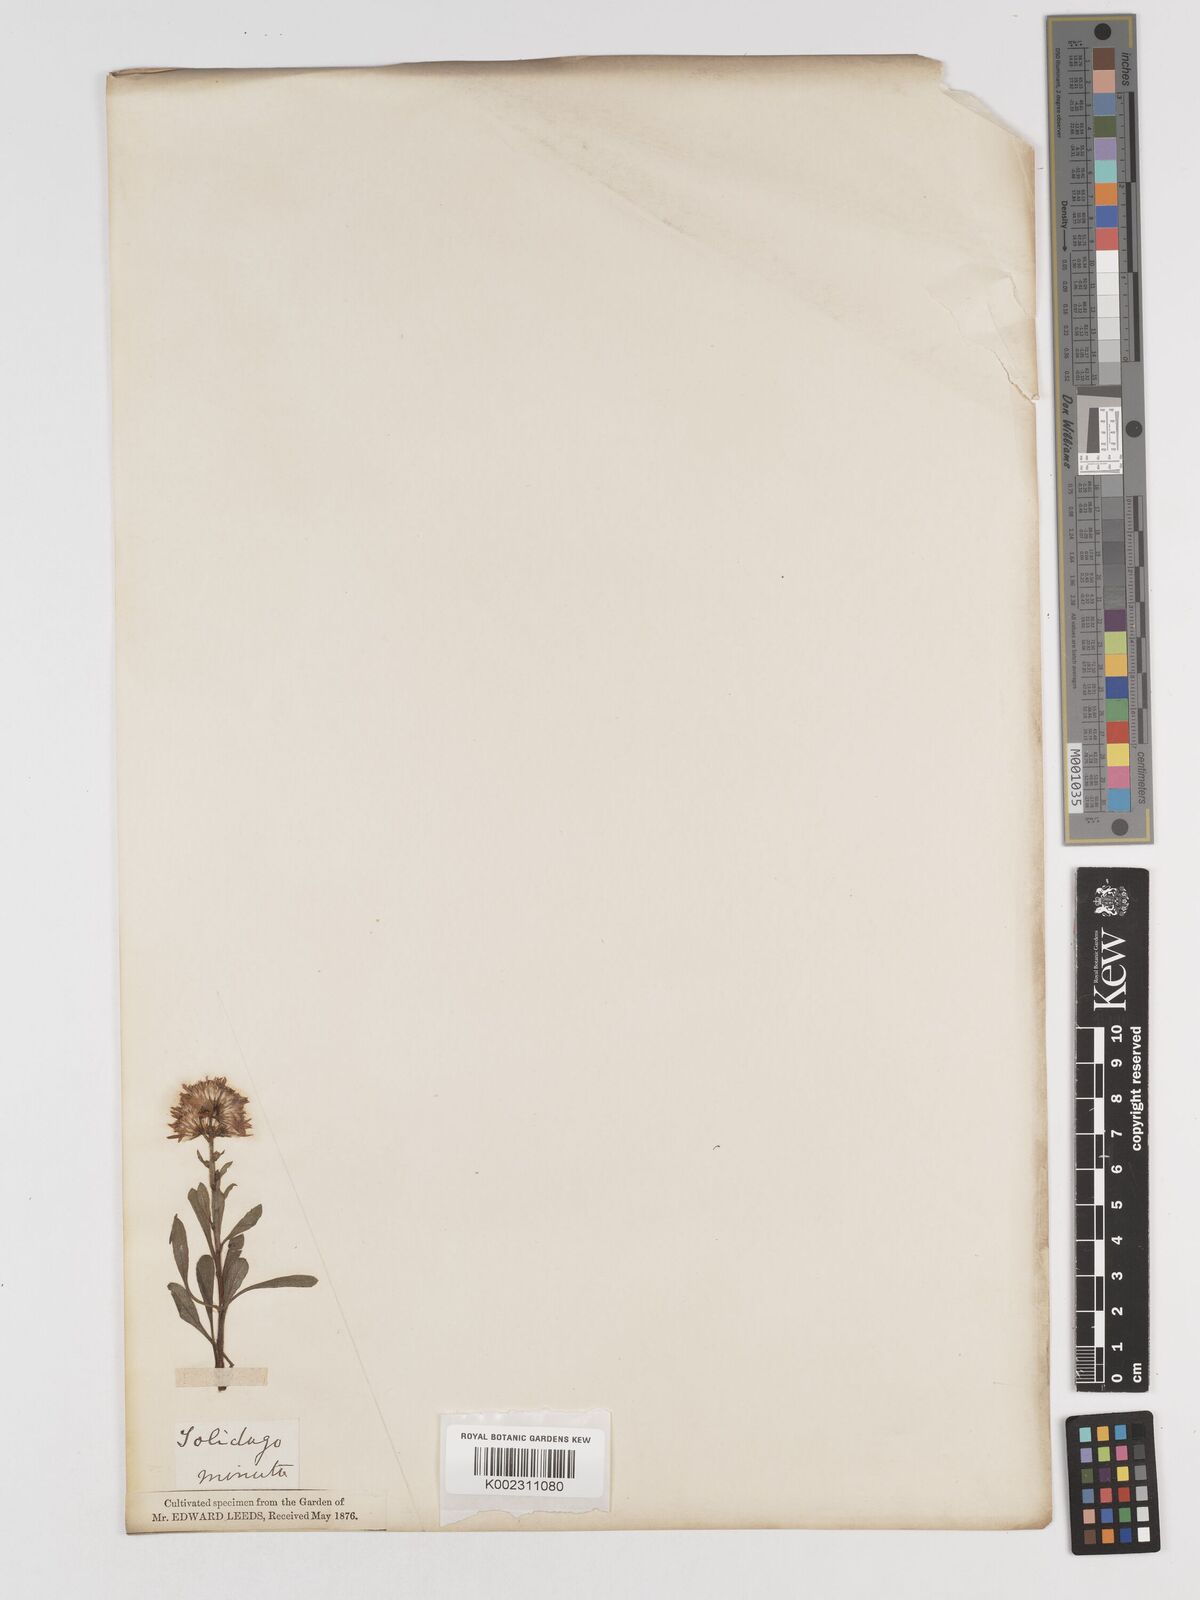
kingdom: Plantae
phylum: Tracheophyta
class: Magnoliopsida
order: Asterales
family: Asteraceae
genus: Solidago
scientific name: Solidago
